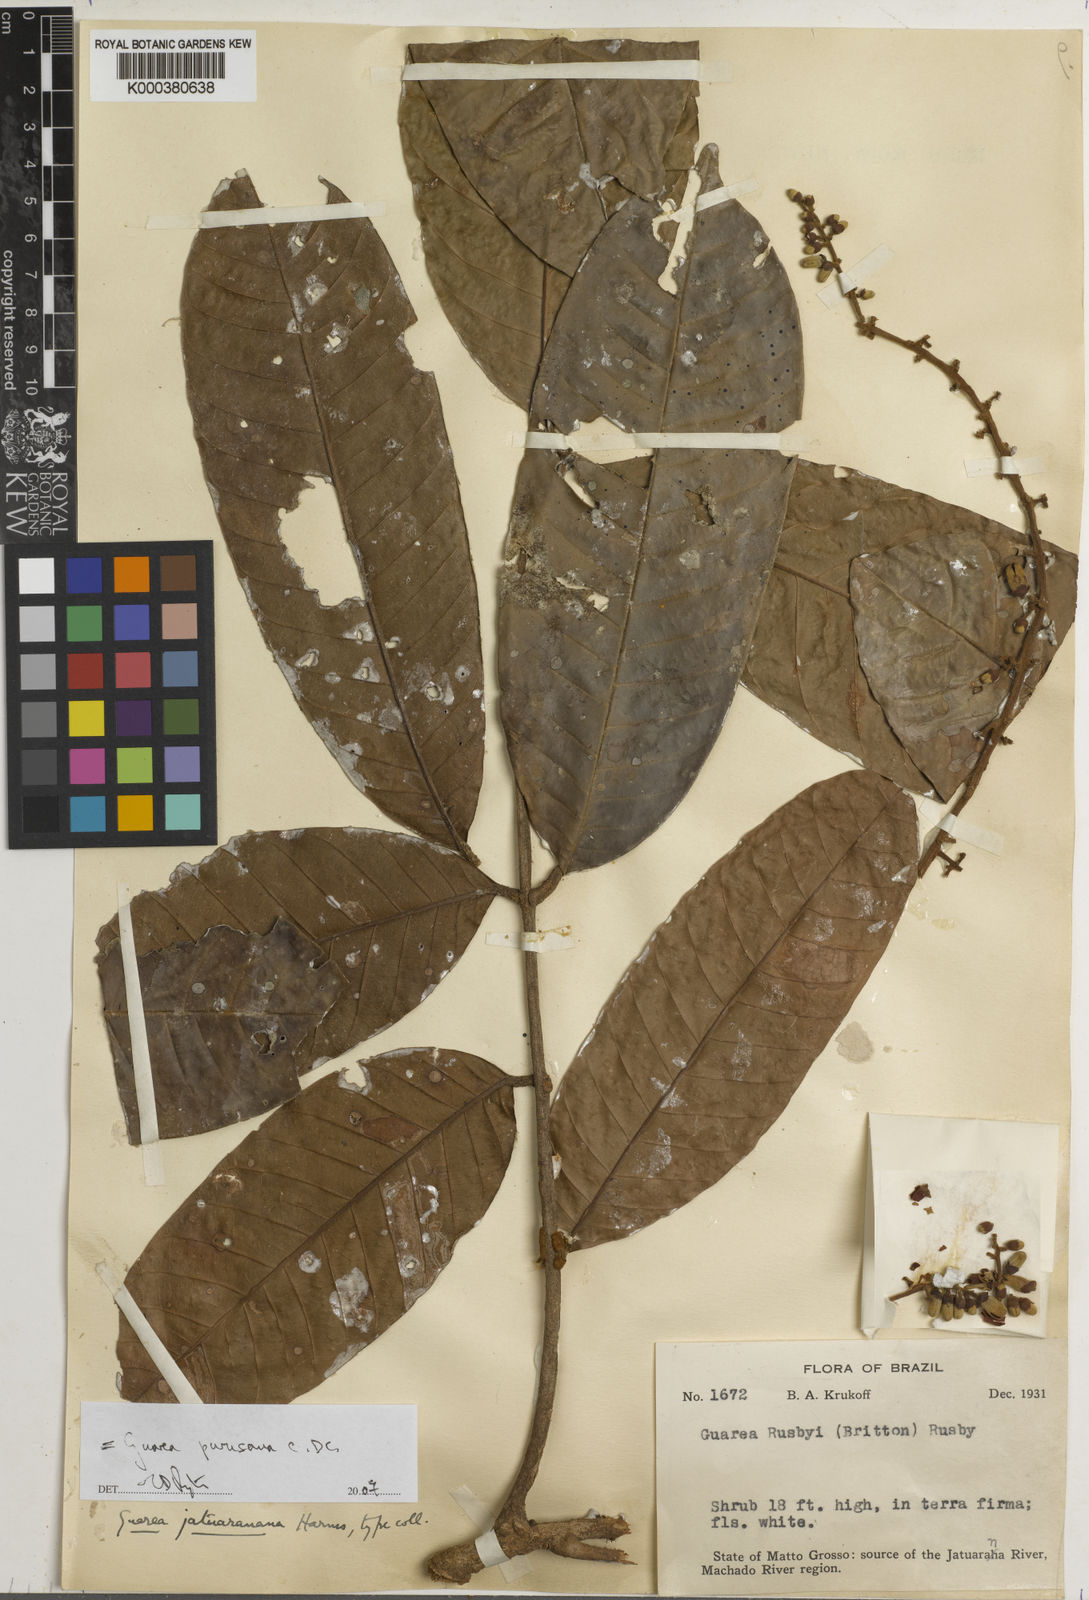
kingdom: Plantae
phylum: Tracheophyta
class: Magnoliopsida
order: Sapindales
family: Meliaceae
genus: Guarea
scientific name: Guarea purusana
